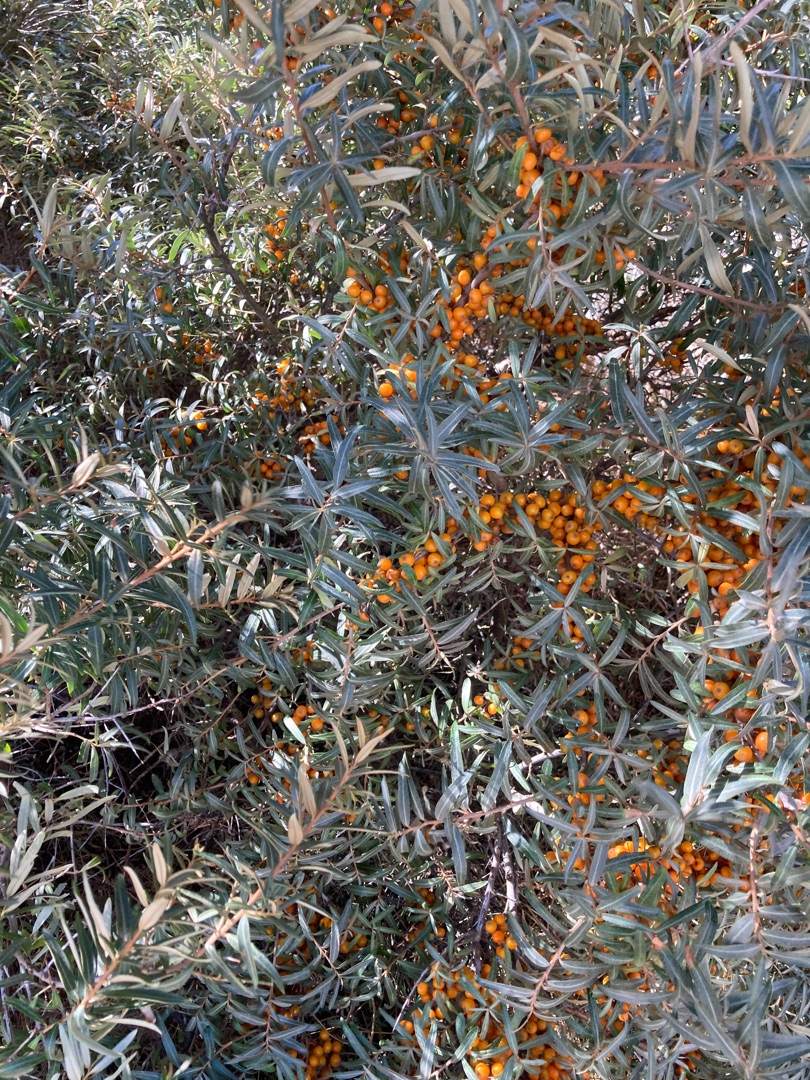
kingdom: Plantae
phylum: Tracheophyta
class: Magnoliopsida
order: Rosales
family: Elaeagnaceae
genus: Hippophae
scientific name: Hippophae rhamnoides
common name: Havtorn
